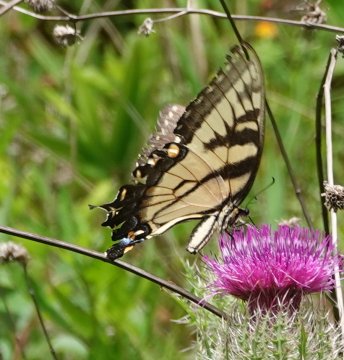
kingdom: Animalia
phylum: Arthropoda
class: Insecta
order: Lepidoptera
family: Papilionidae
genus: Pterourus
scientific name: Pterourus glaucus
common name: Eastern Tiger Swallowtail
